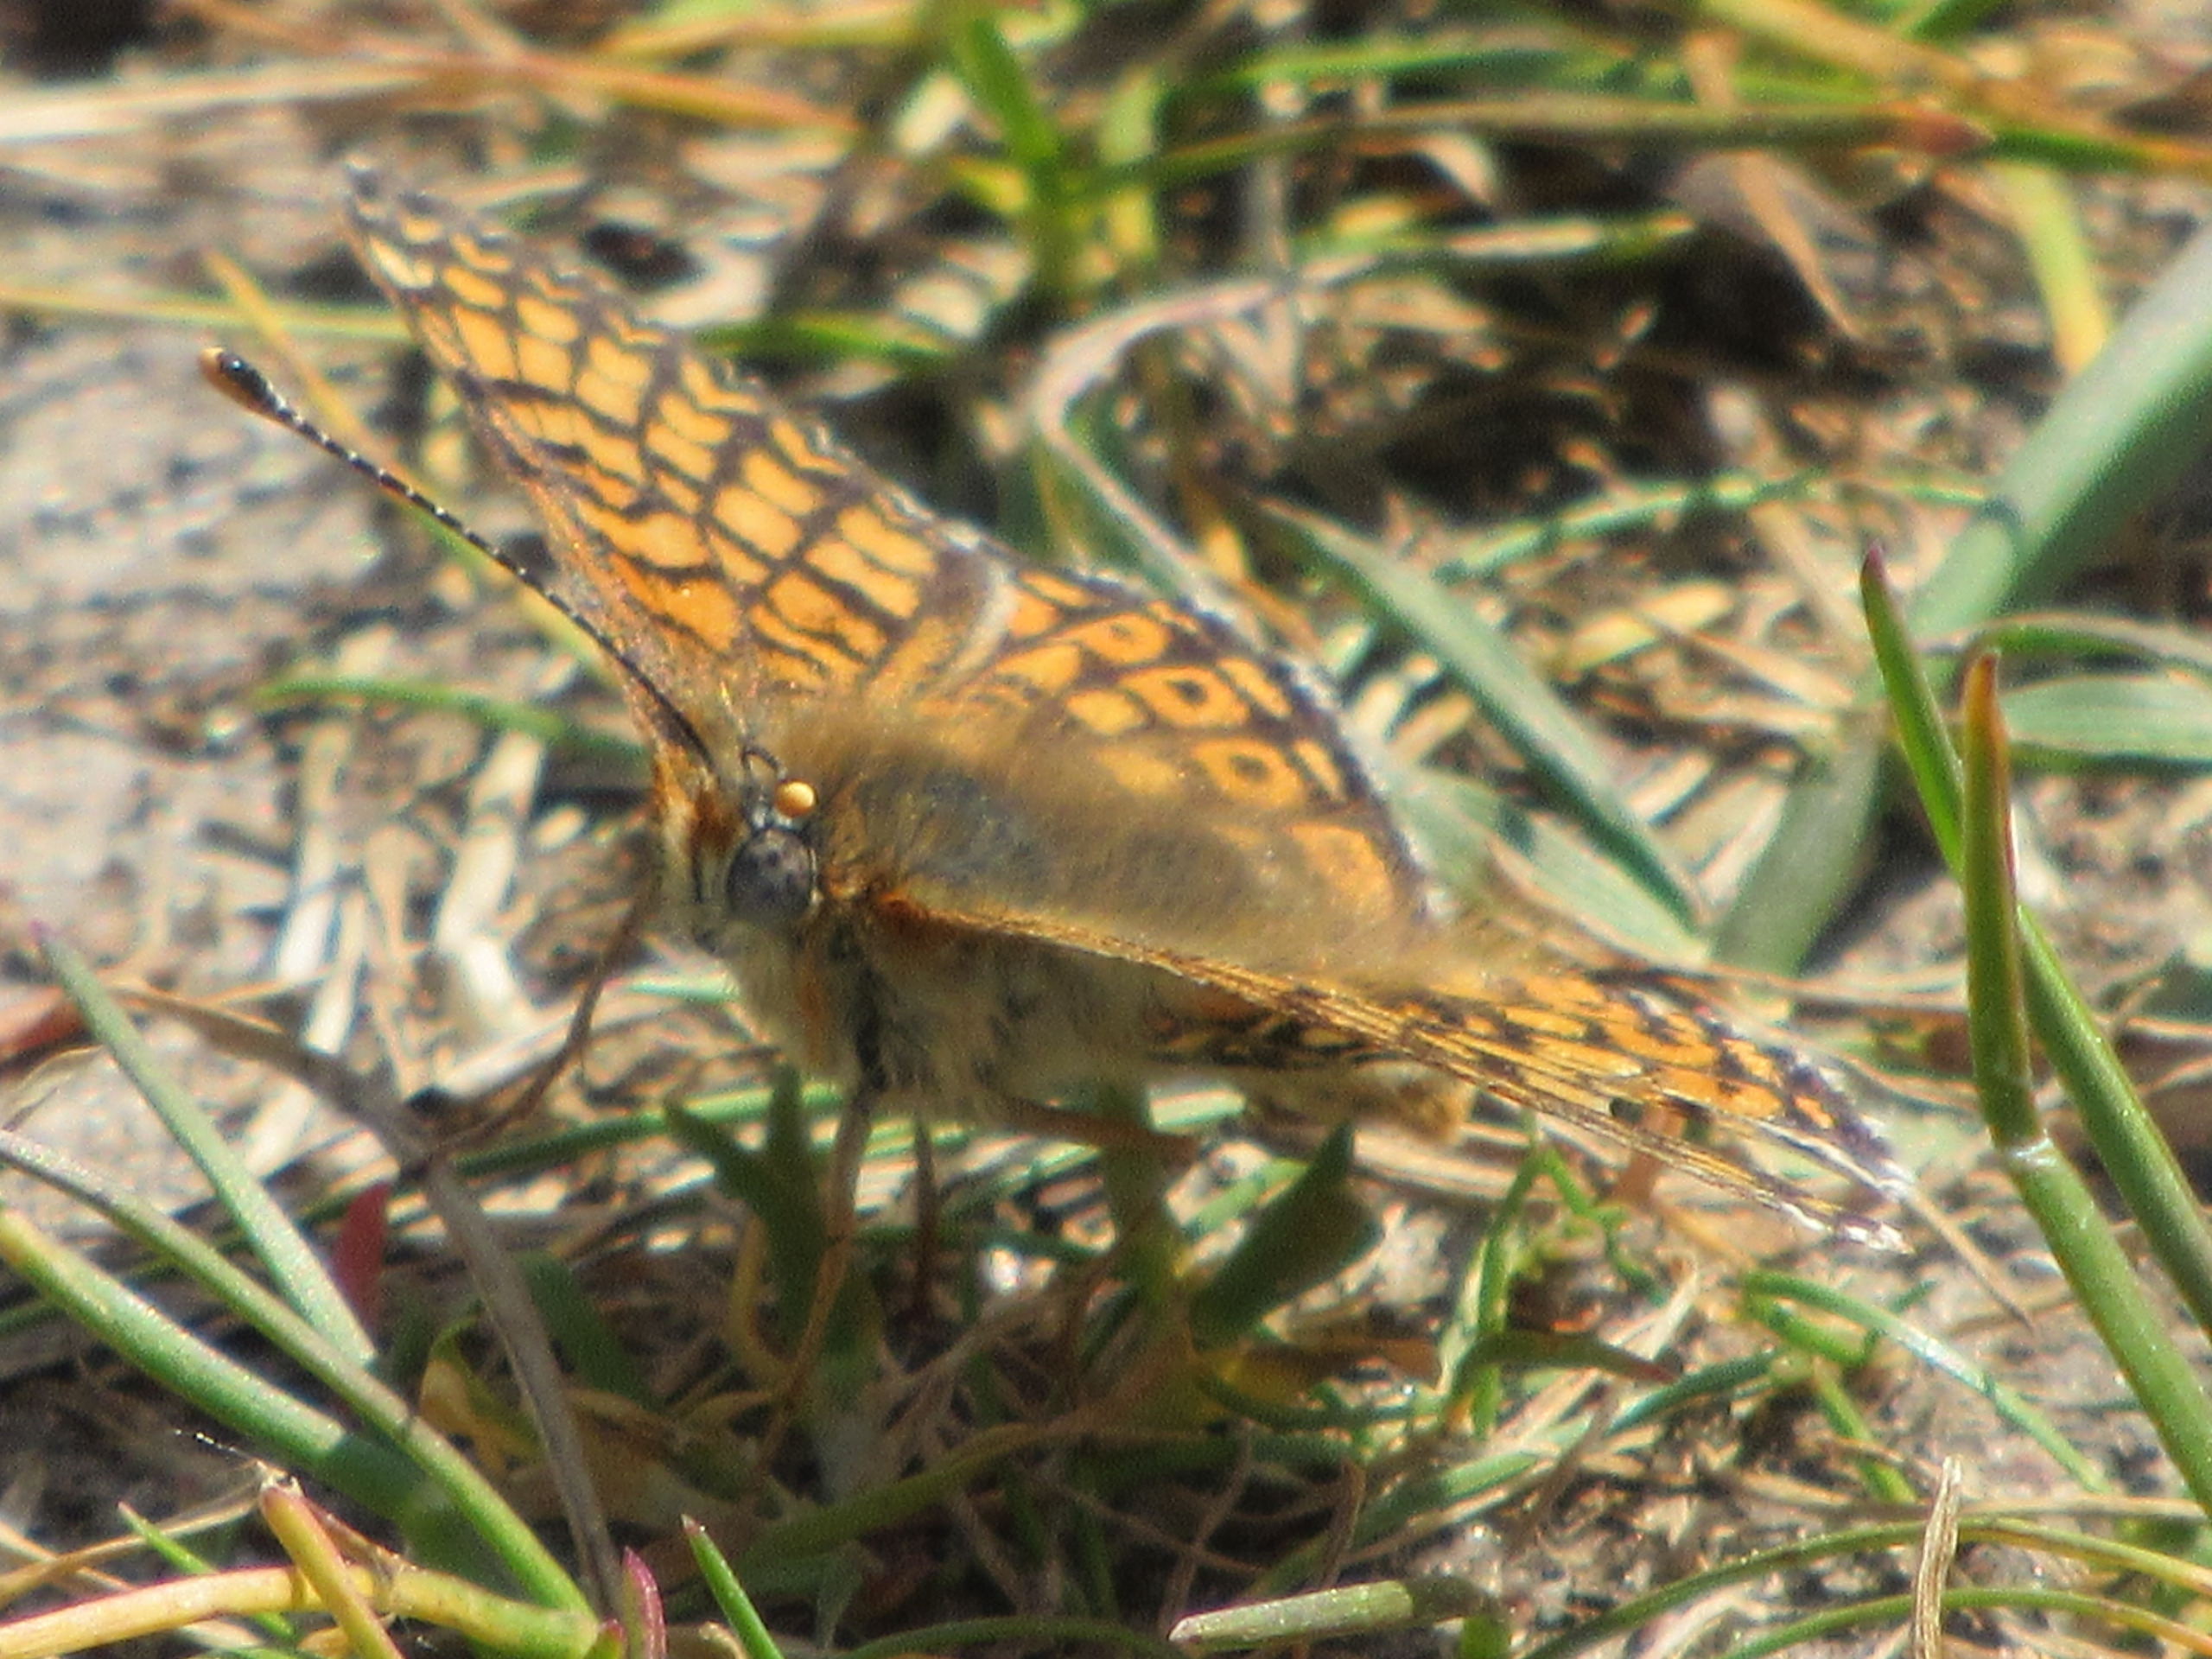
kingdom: Animalia
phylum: Arthropoda
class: Insecta
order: Lepidoptera
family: Nymphalidae
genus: Melitaea
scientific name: Melitaea cinxia
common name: Okkergul pletvinge
